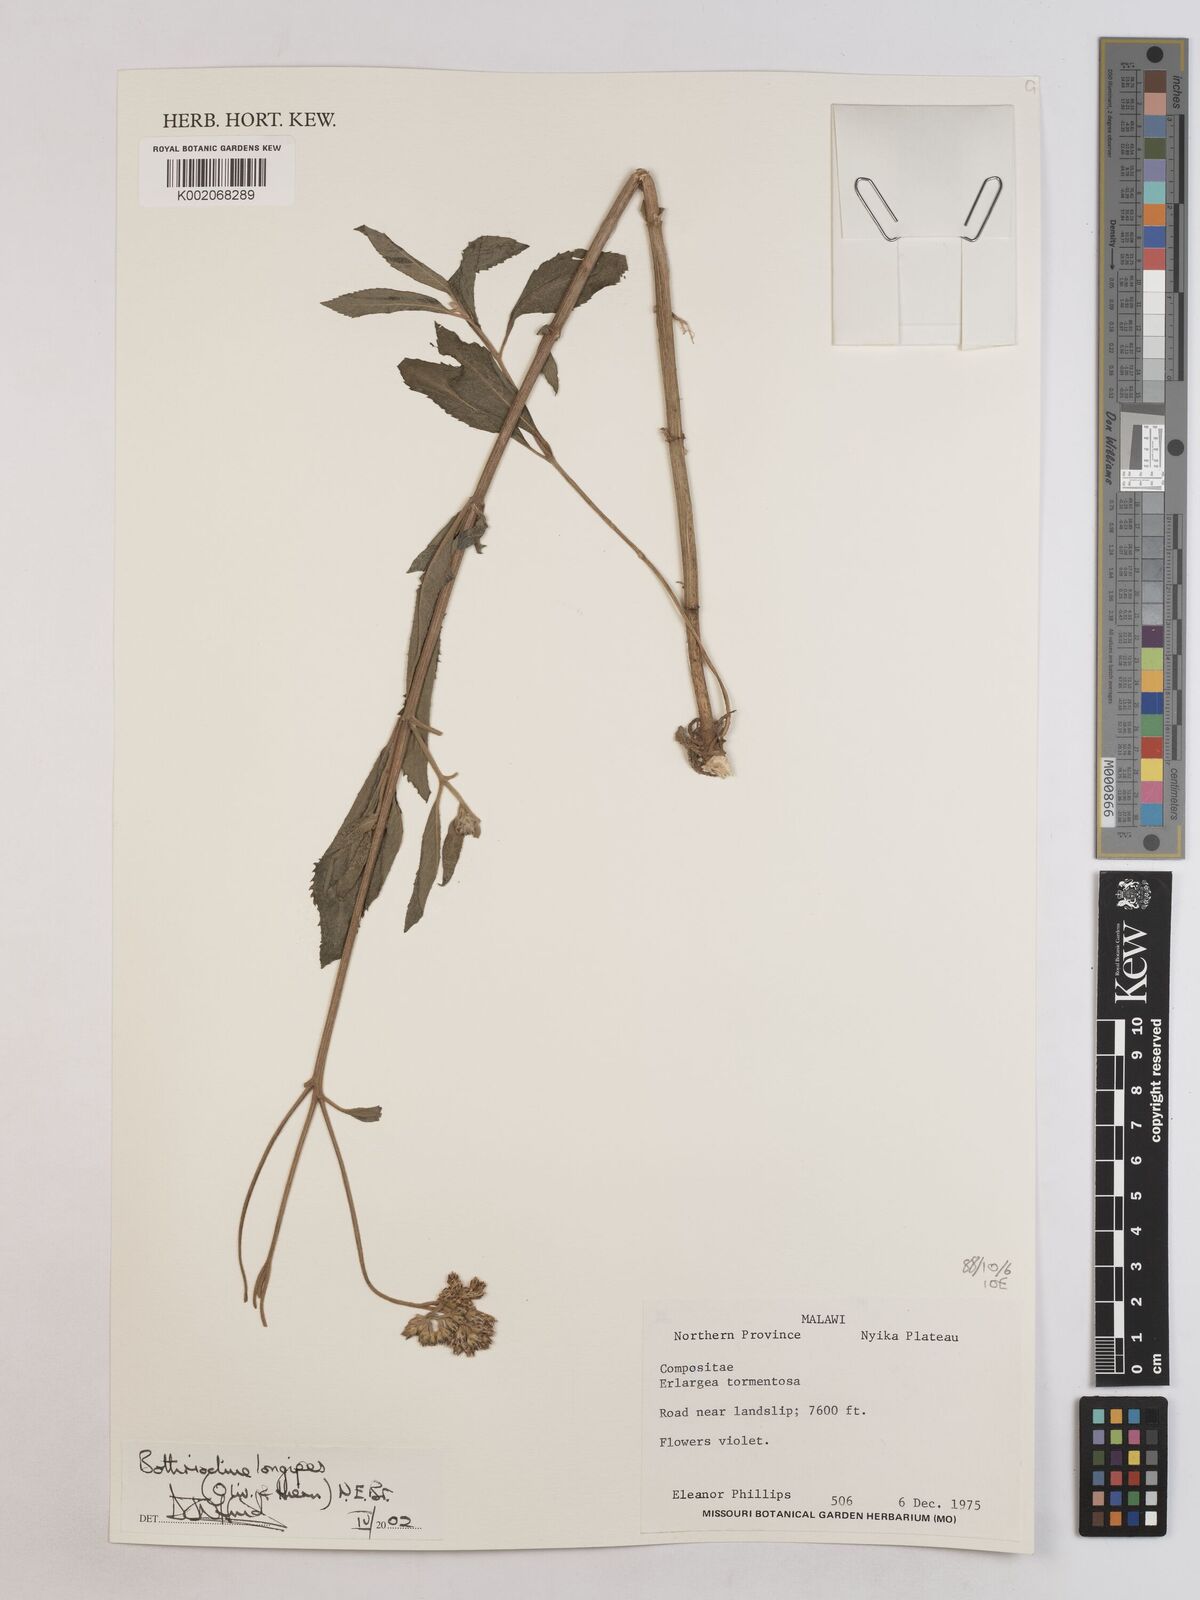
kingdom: Plantae
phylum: Tracheophyta
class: Magnoliopsida
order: Asterales
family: Asteraceae
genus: Bothriocline
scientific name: Bothriocline longipes
